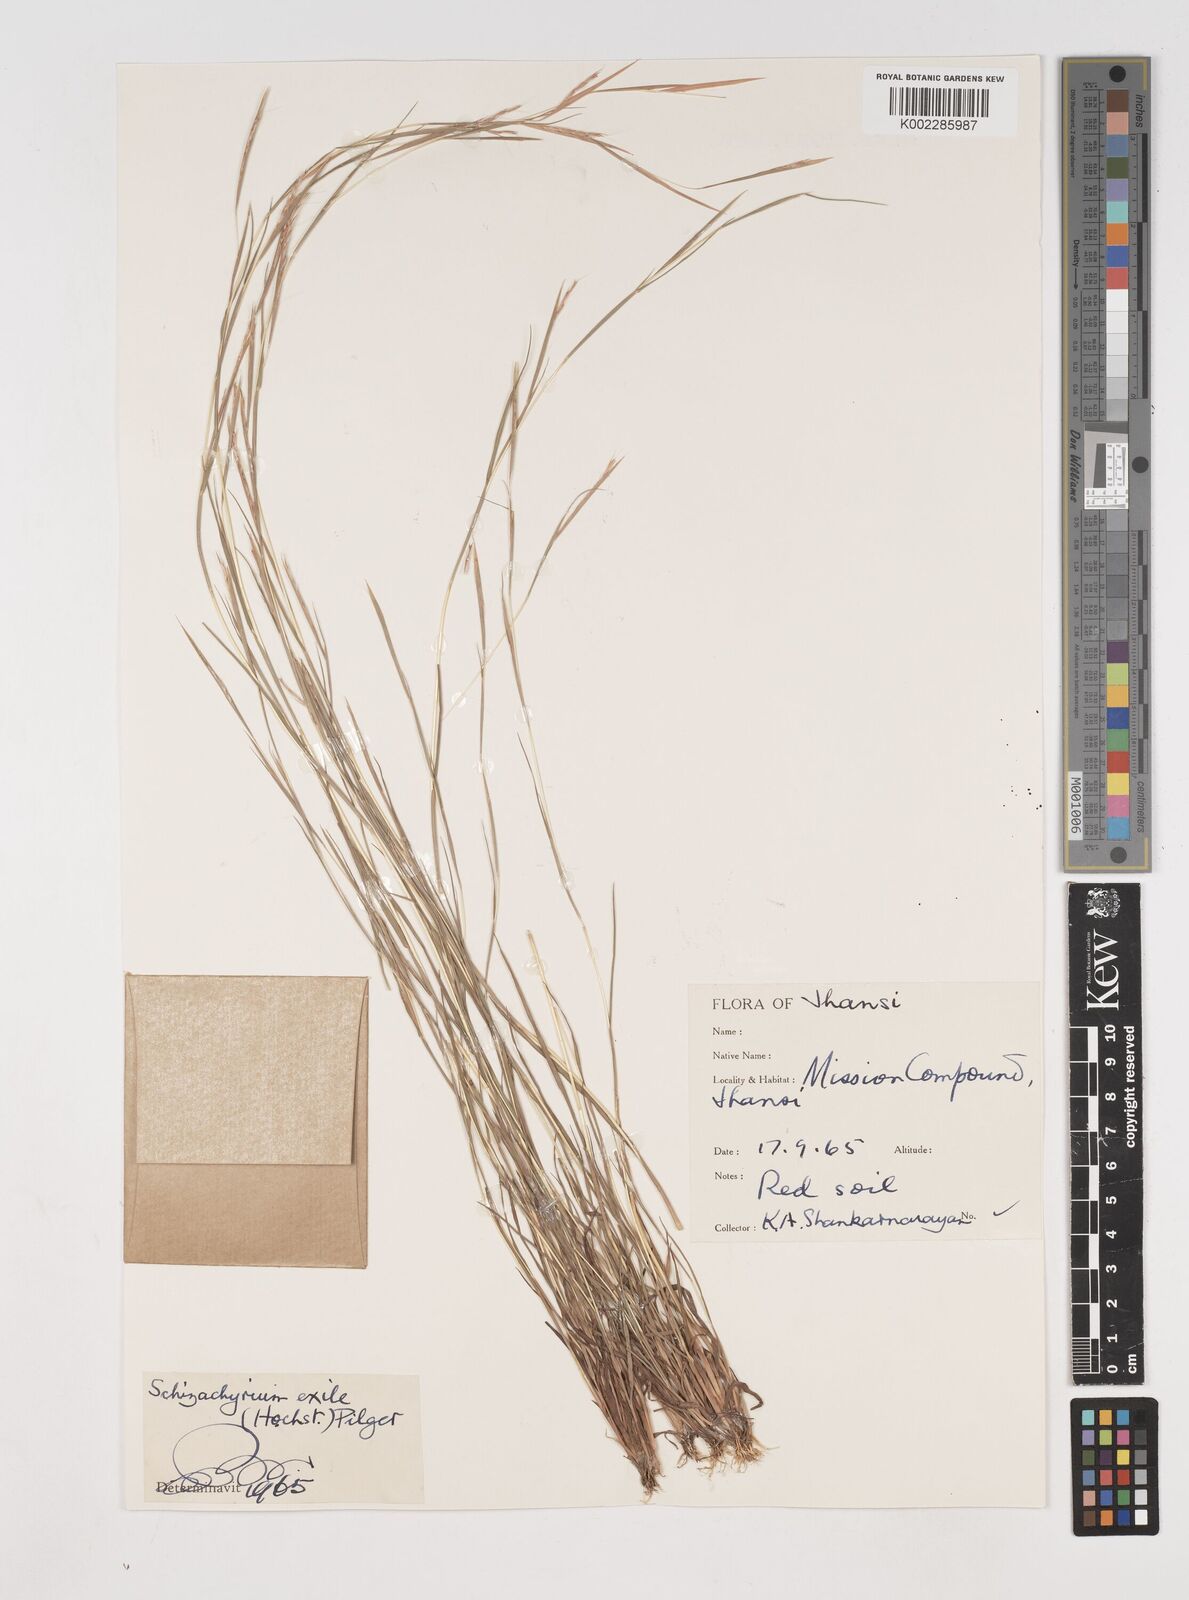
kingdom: Plantae
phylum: Tracheophyta
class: Liliopsida
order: Poales
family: Poaceae
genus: Schizachyrium
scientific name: Schizachyrium exile
